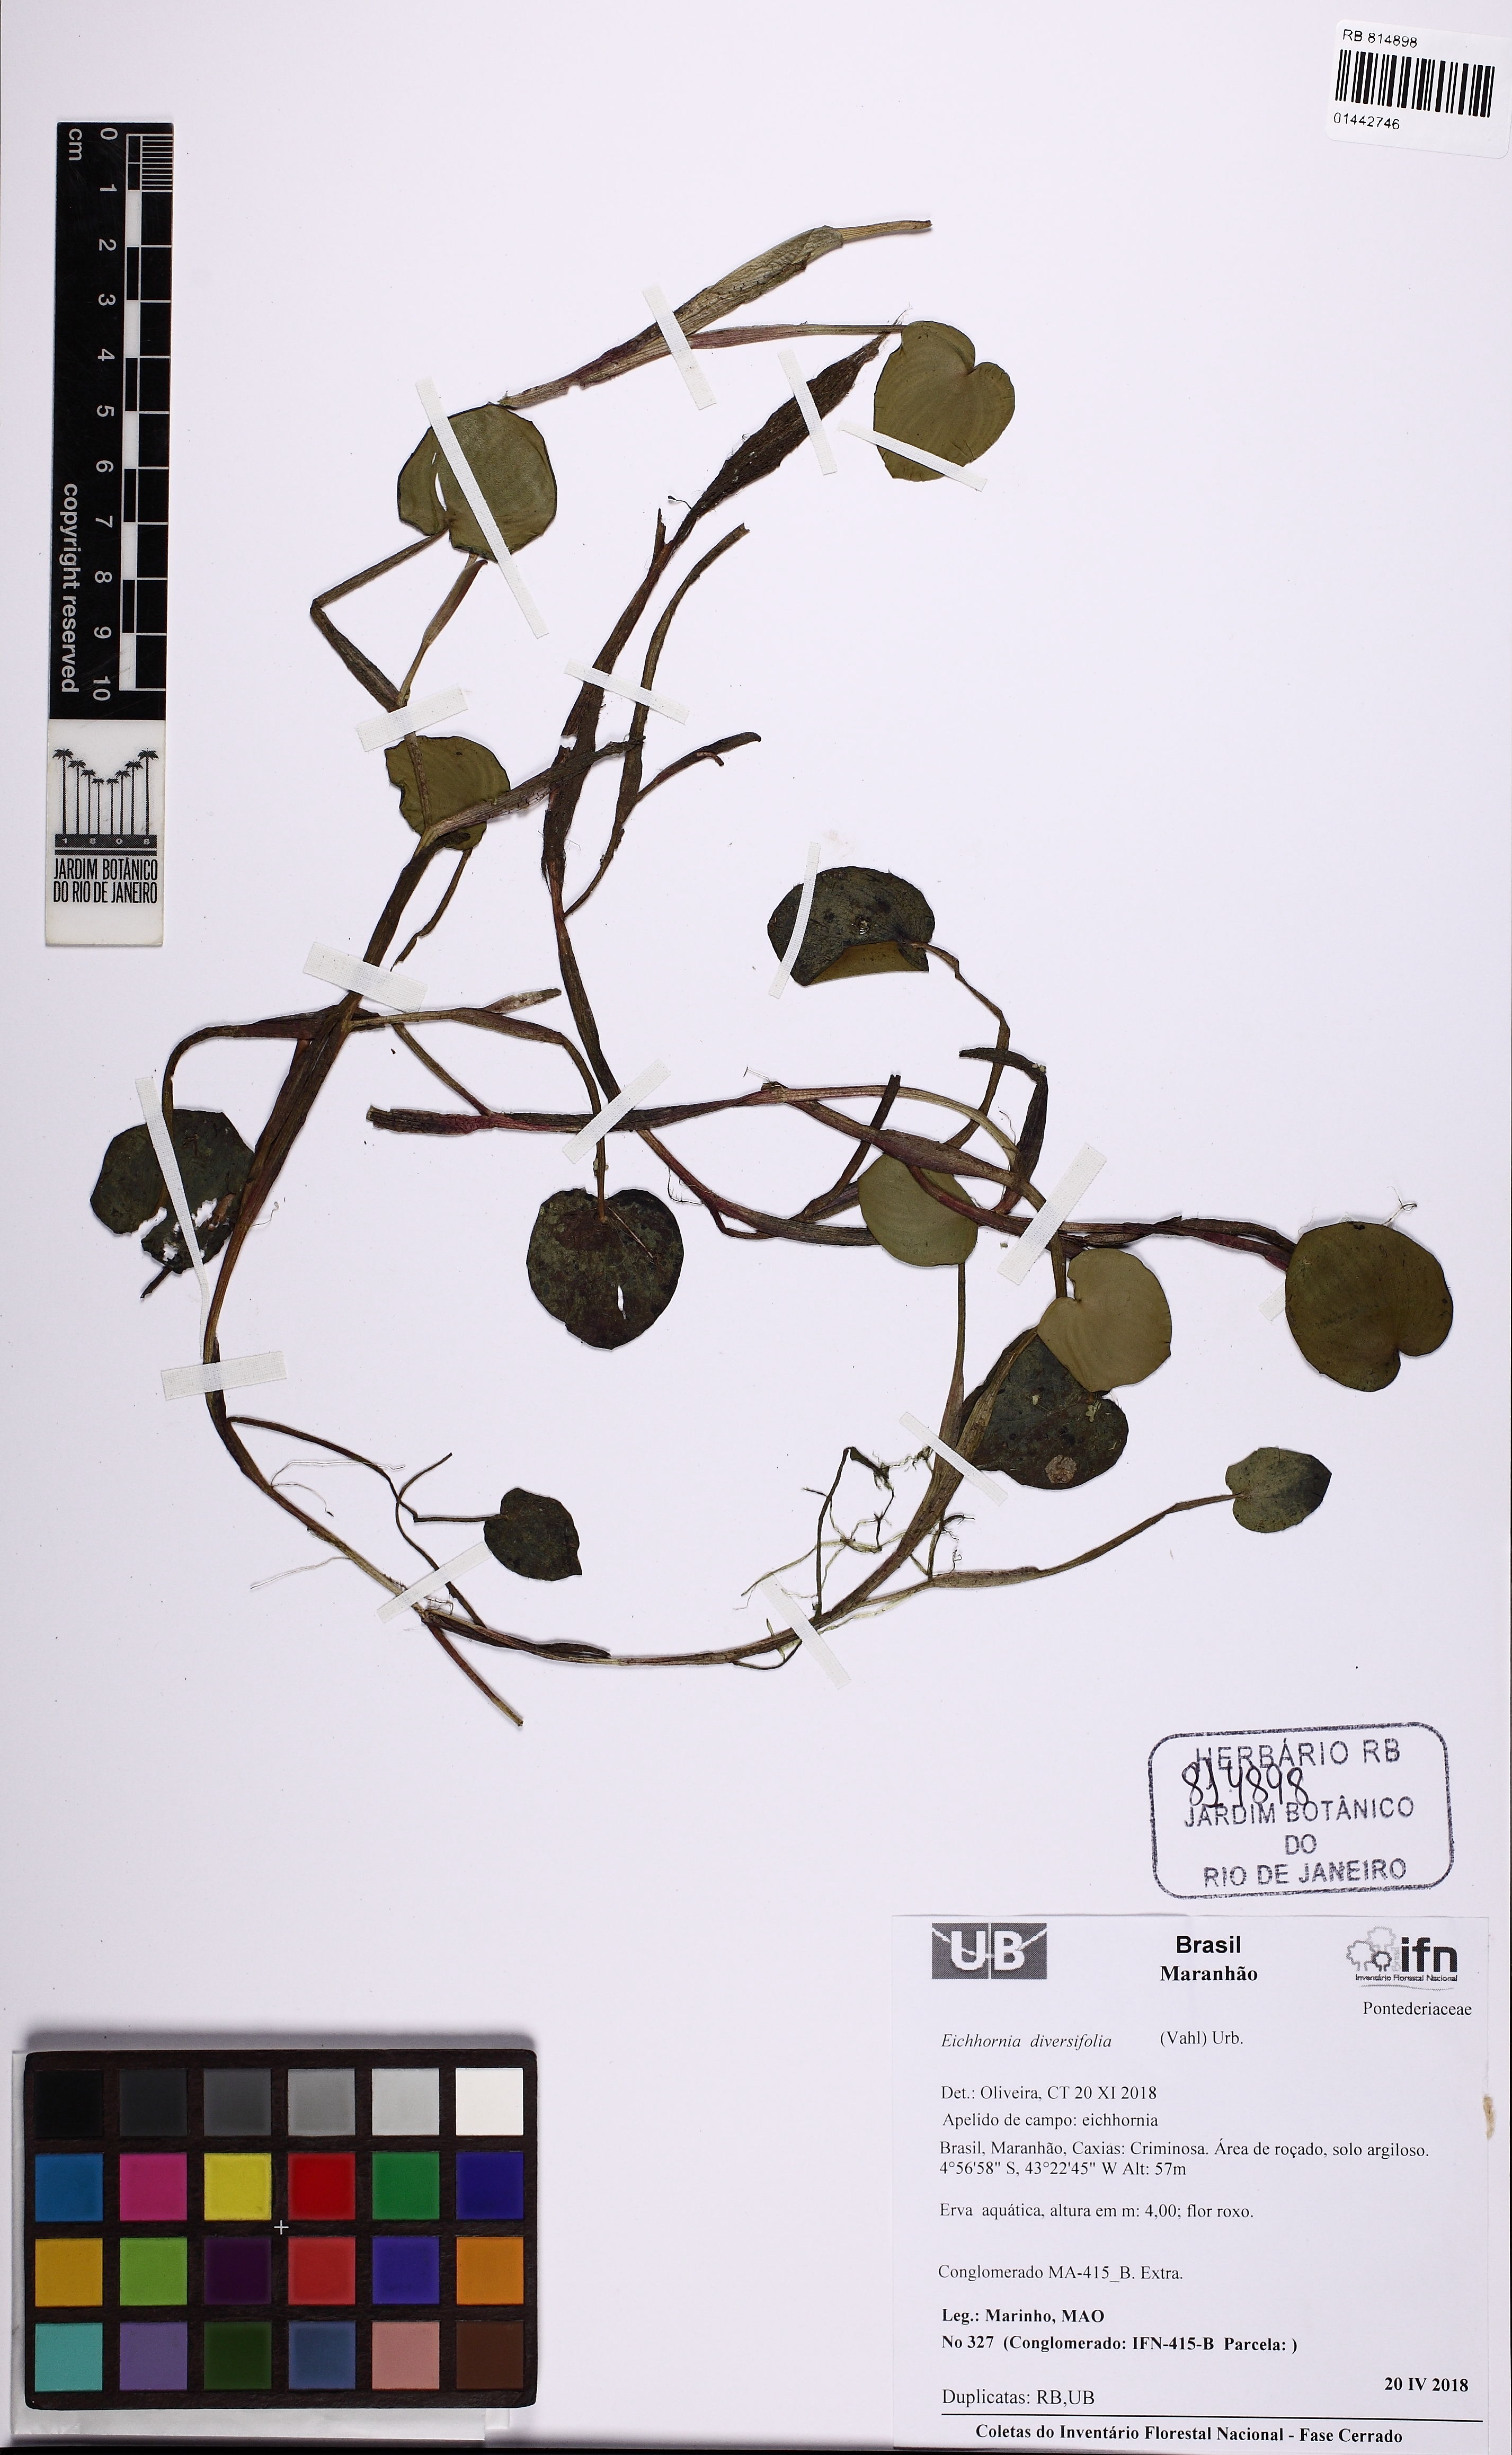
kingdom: Plantae
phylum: Tracheophyta
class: Liliopsida
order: Commelinales
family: Pontederiaceae
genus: Pontederia
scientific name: Pontederia diversifolia
